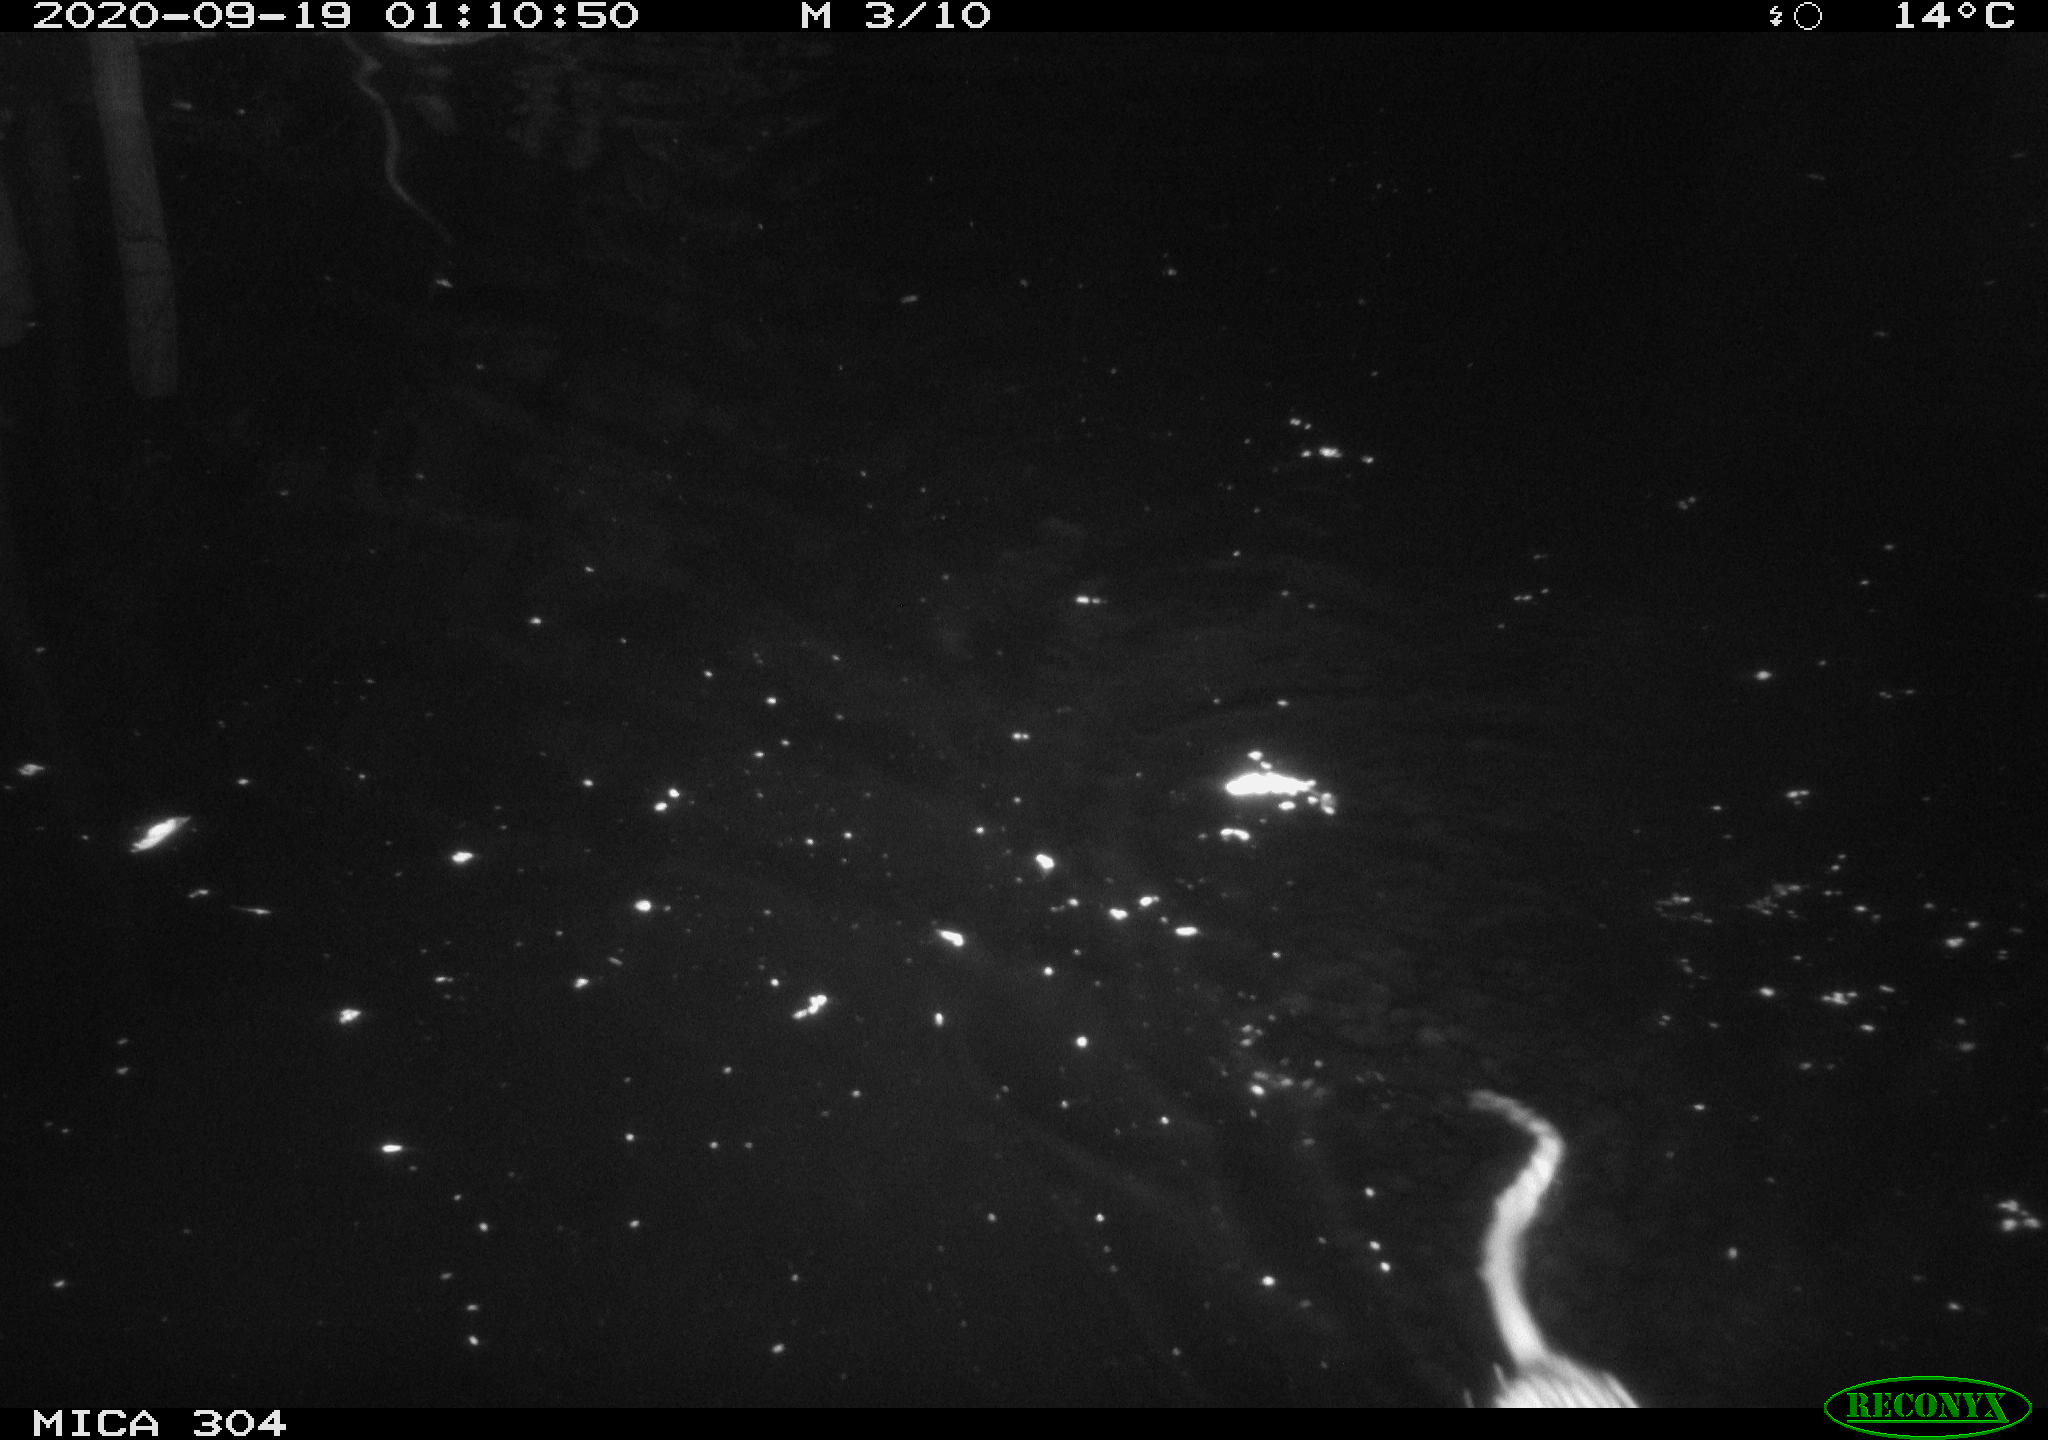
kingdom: Animalia
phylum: Chordata
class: Mammalia
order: Rodentia
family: Cricetidae
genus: Ondatra
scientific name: Ondatra zibethicus
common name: Muskrat
